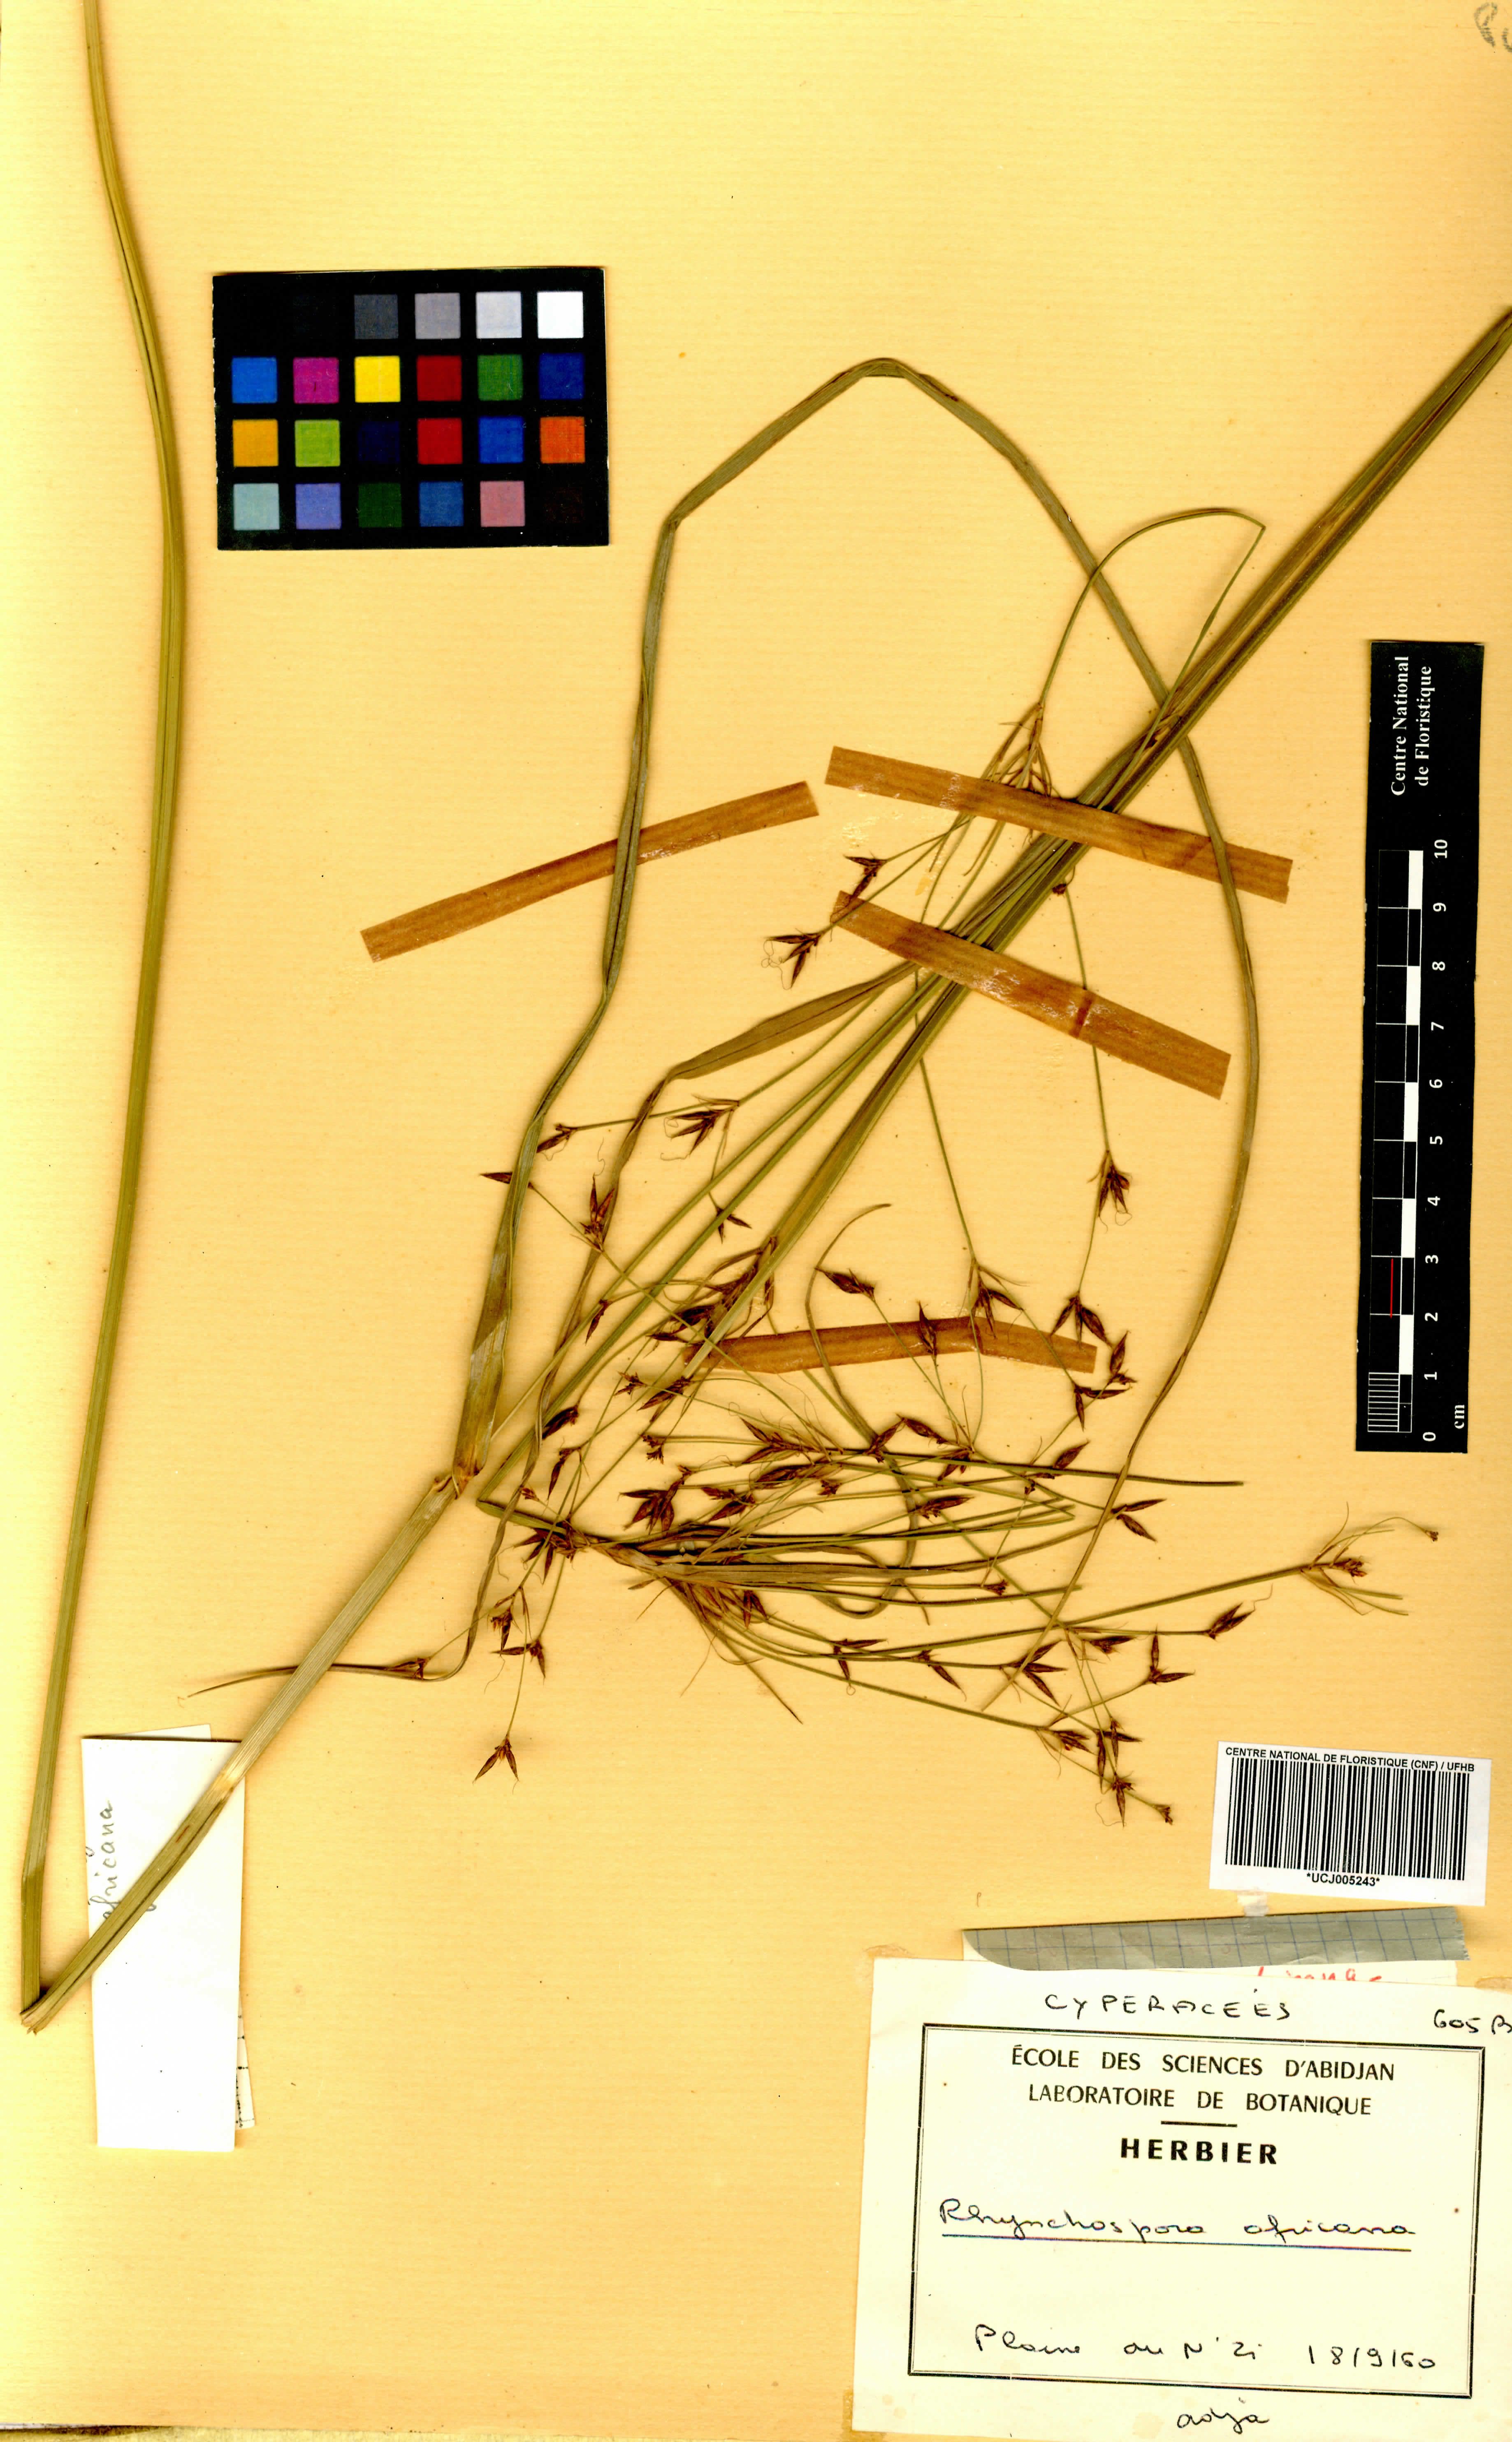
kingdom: Plantae
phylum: Tracheophyta
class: Liliopsida
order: Poales
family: Cyperaceae
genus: Rhynchospora
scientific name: Rhynchospora angolensis
